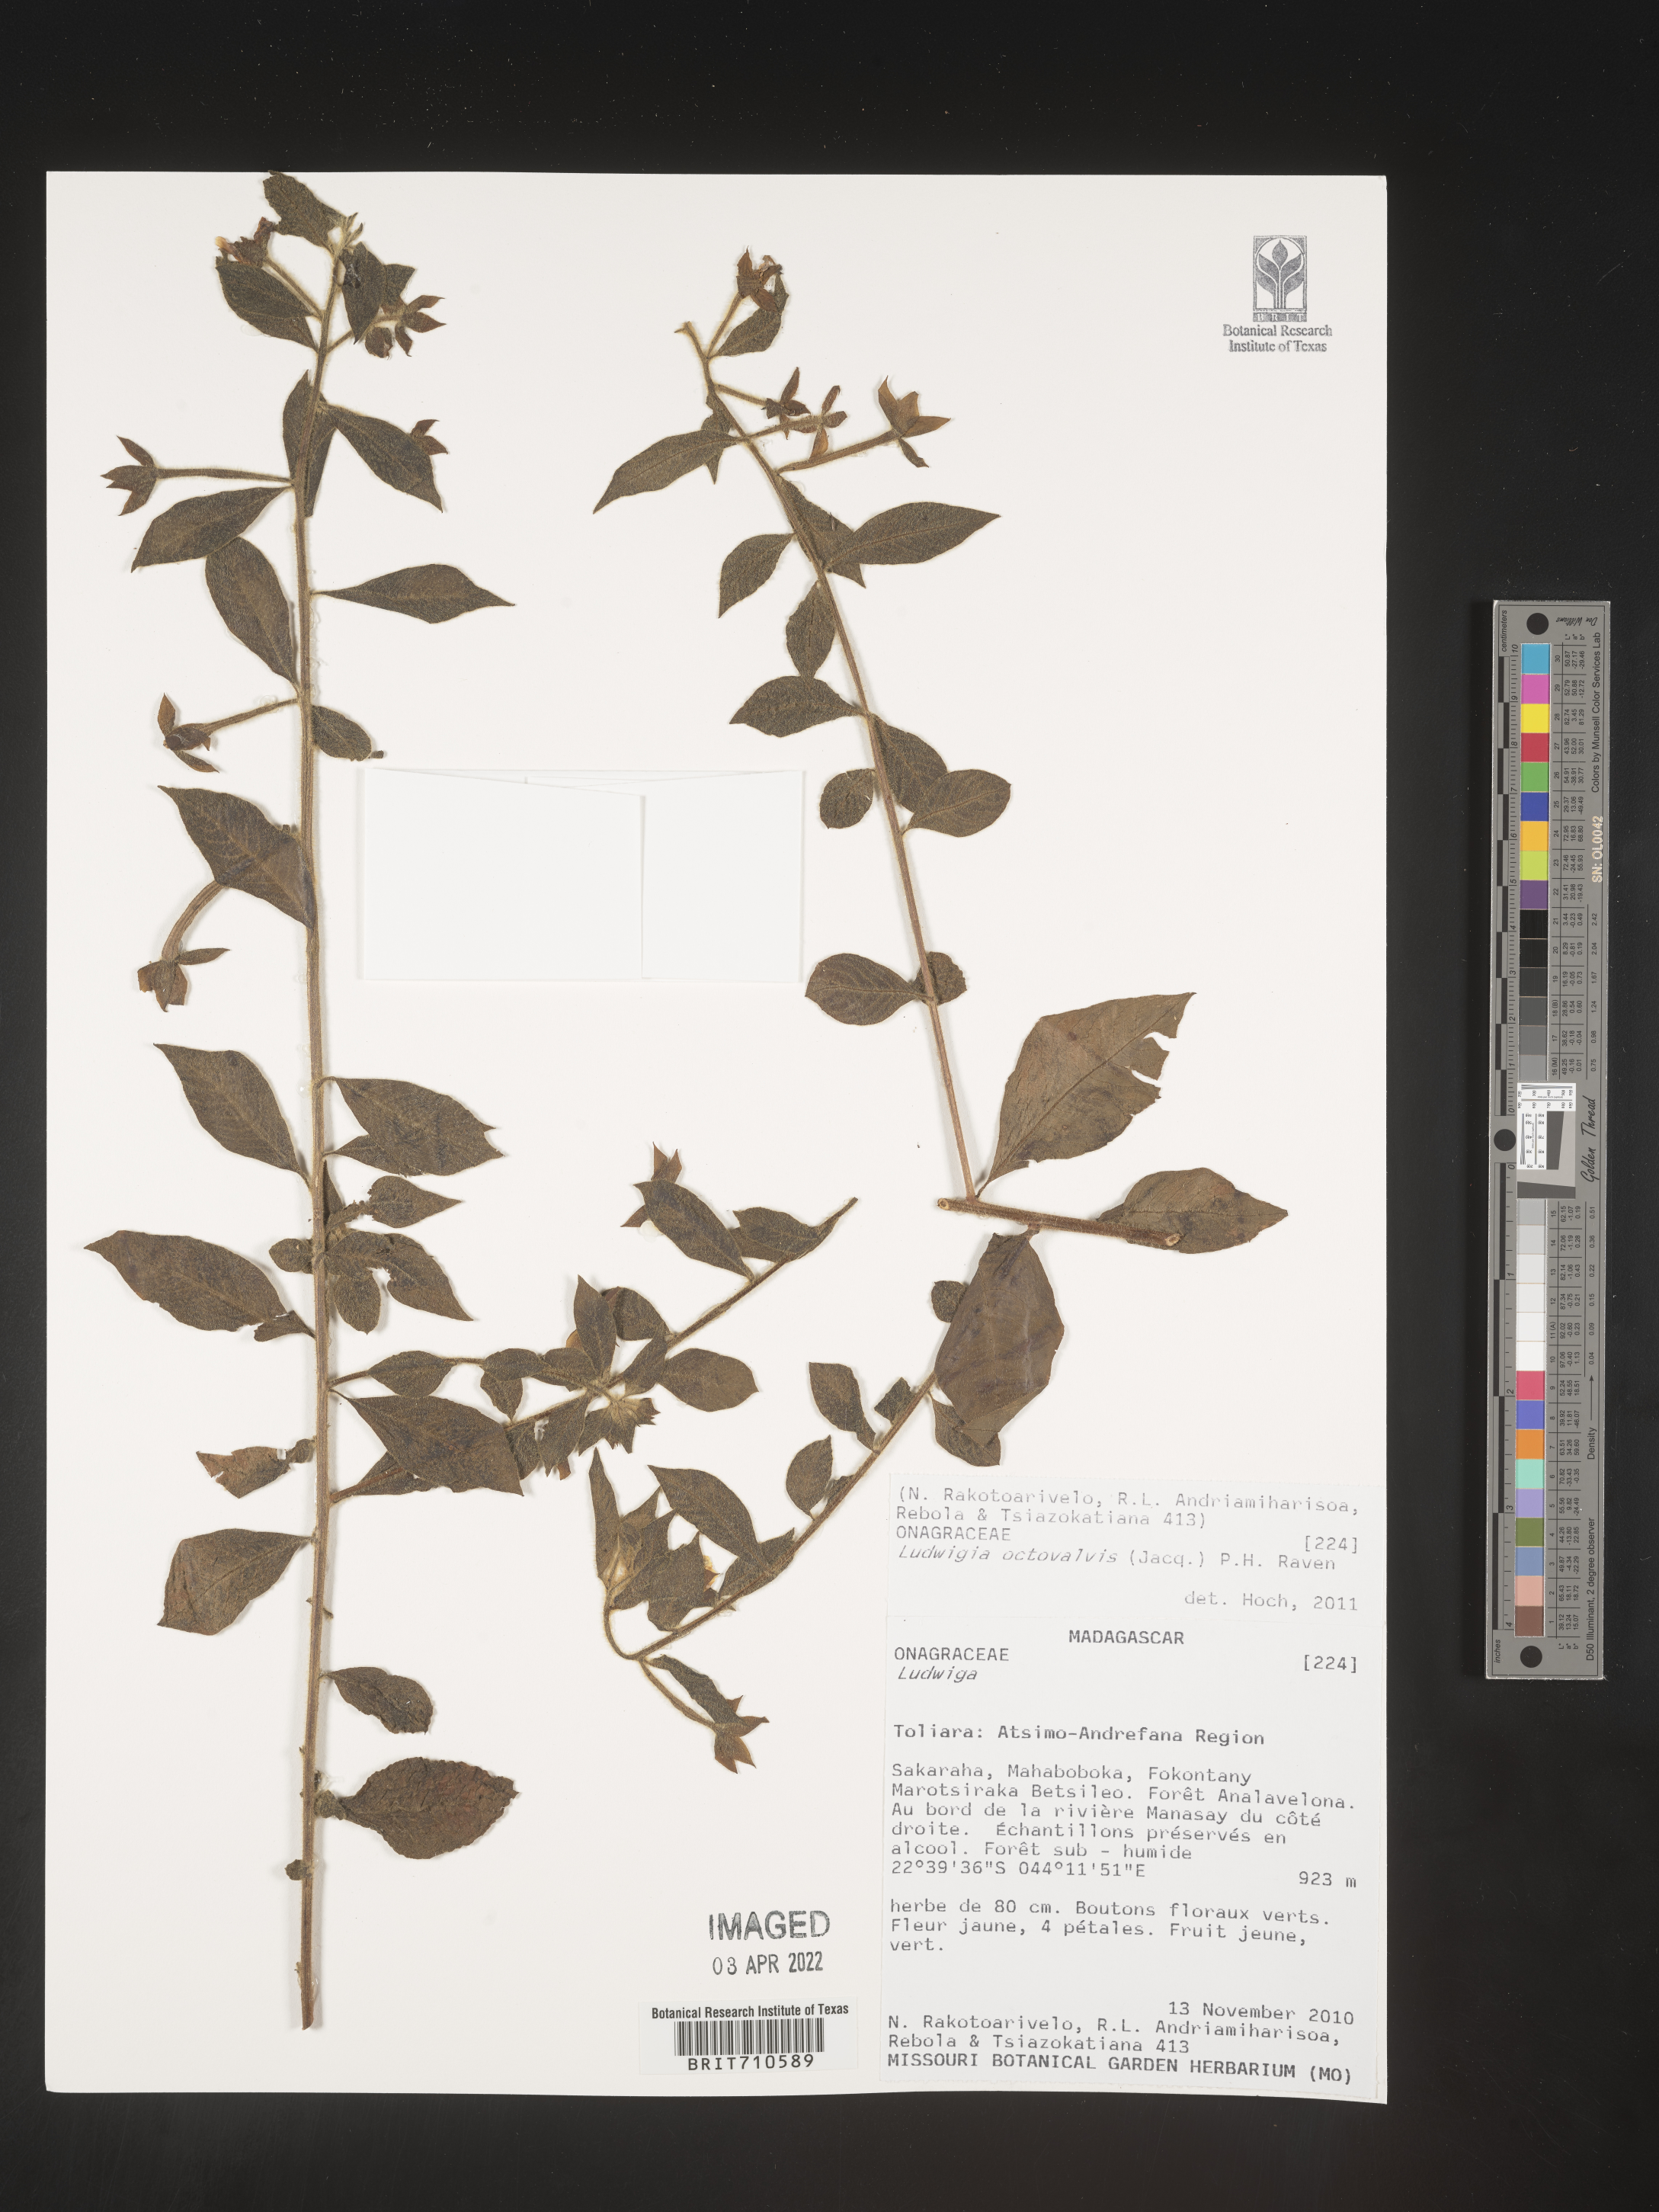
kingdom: Plantae
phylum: Tracheophyta
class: Magnoliopsida
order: Myrtales
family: Onagraceae
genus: Ludwigia
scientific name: Ludwigia
